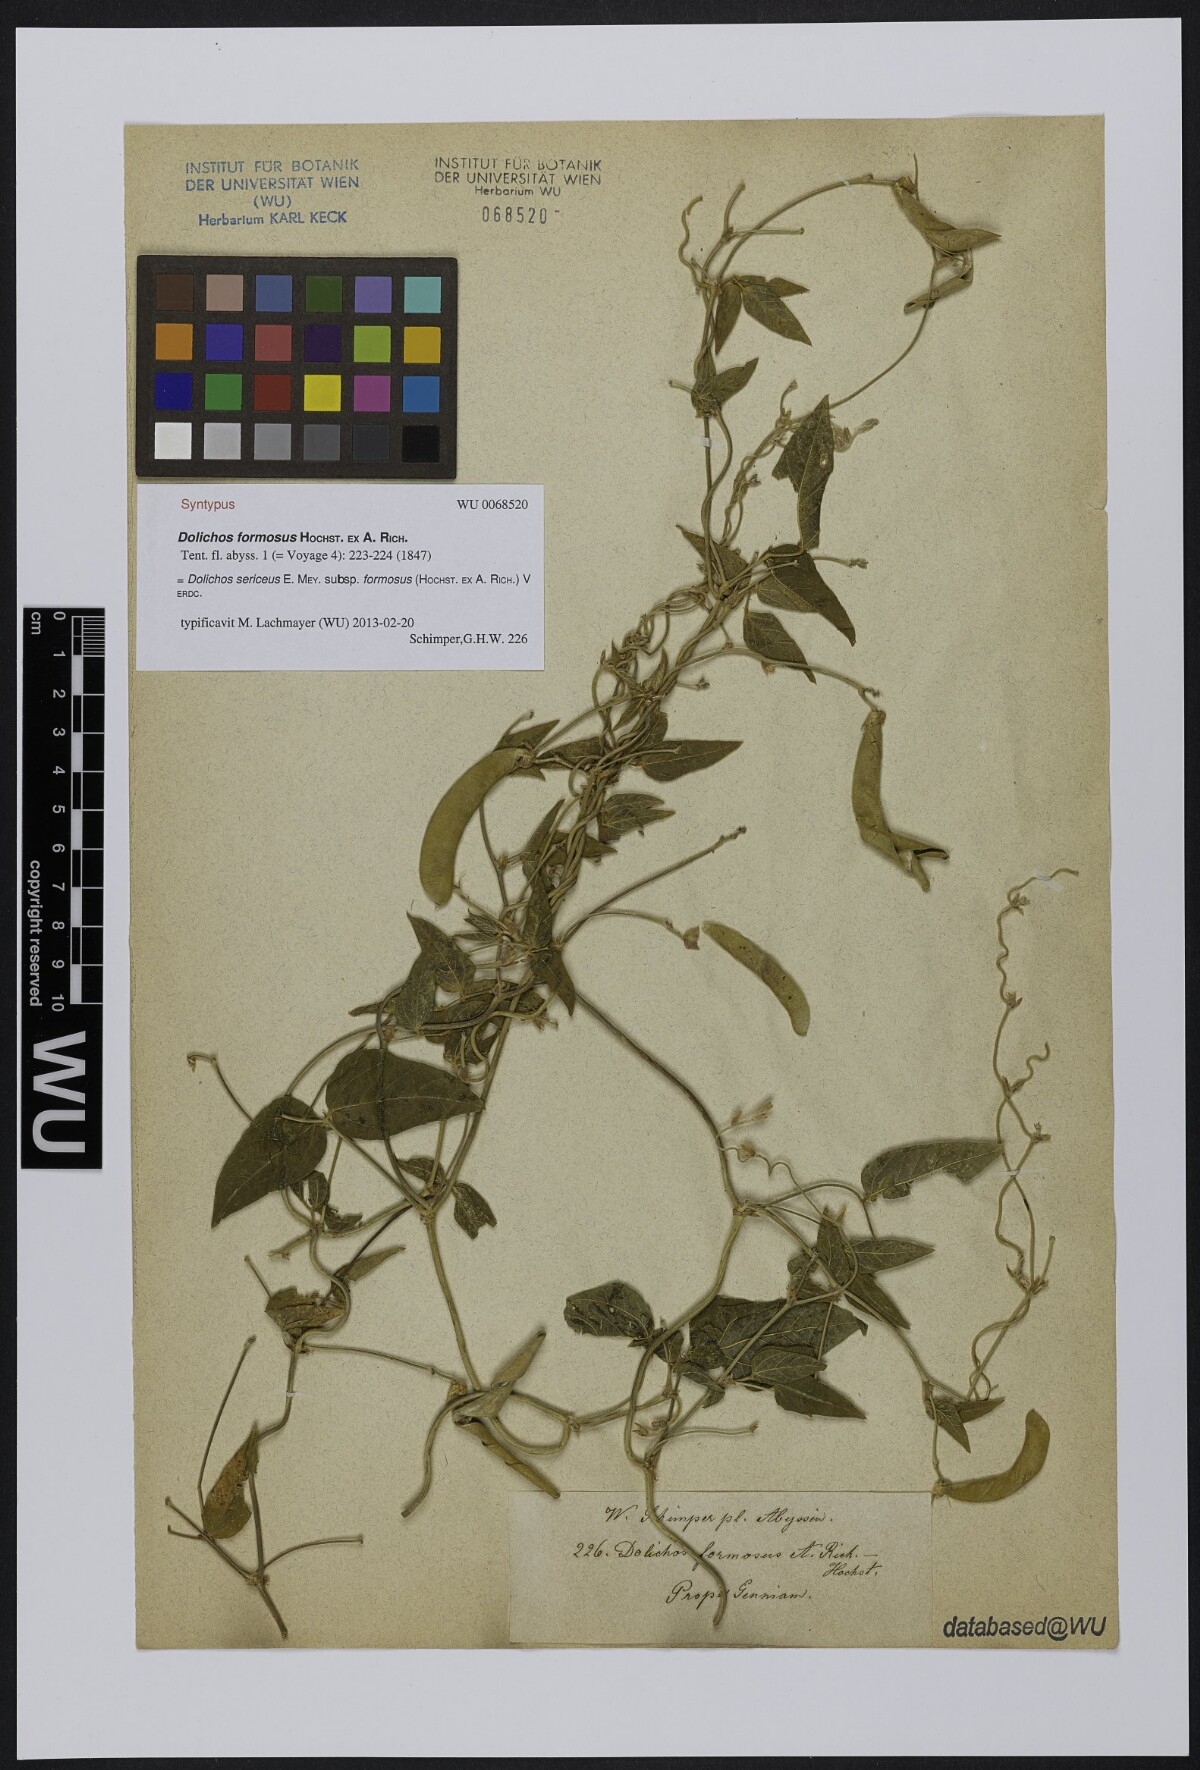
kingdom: Plantae
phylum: Tracheophyta
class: Magnoliopsida
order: Fabales
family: Fabaceae
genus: Dolichos
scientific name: Dolichos sericeus
